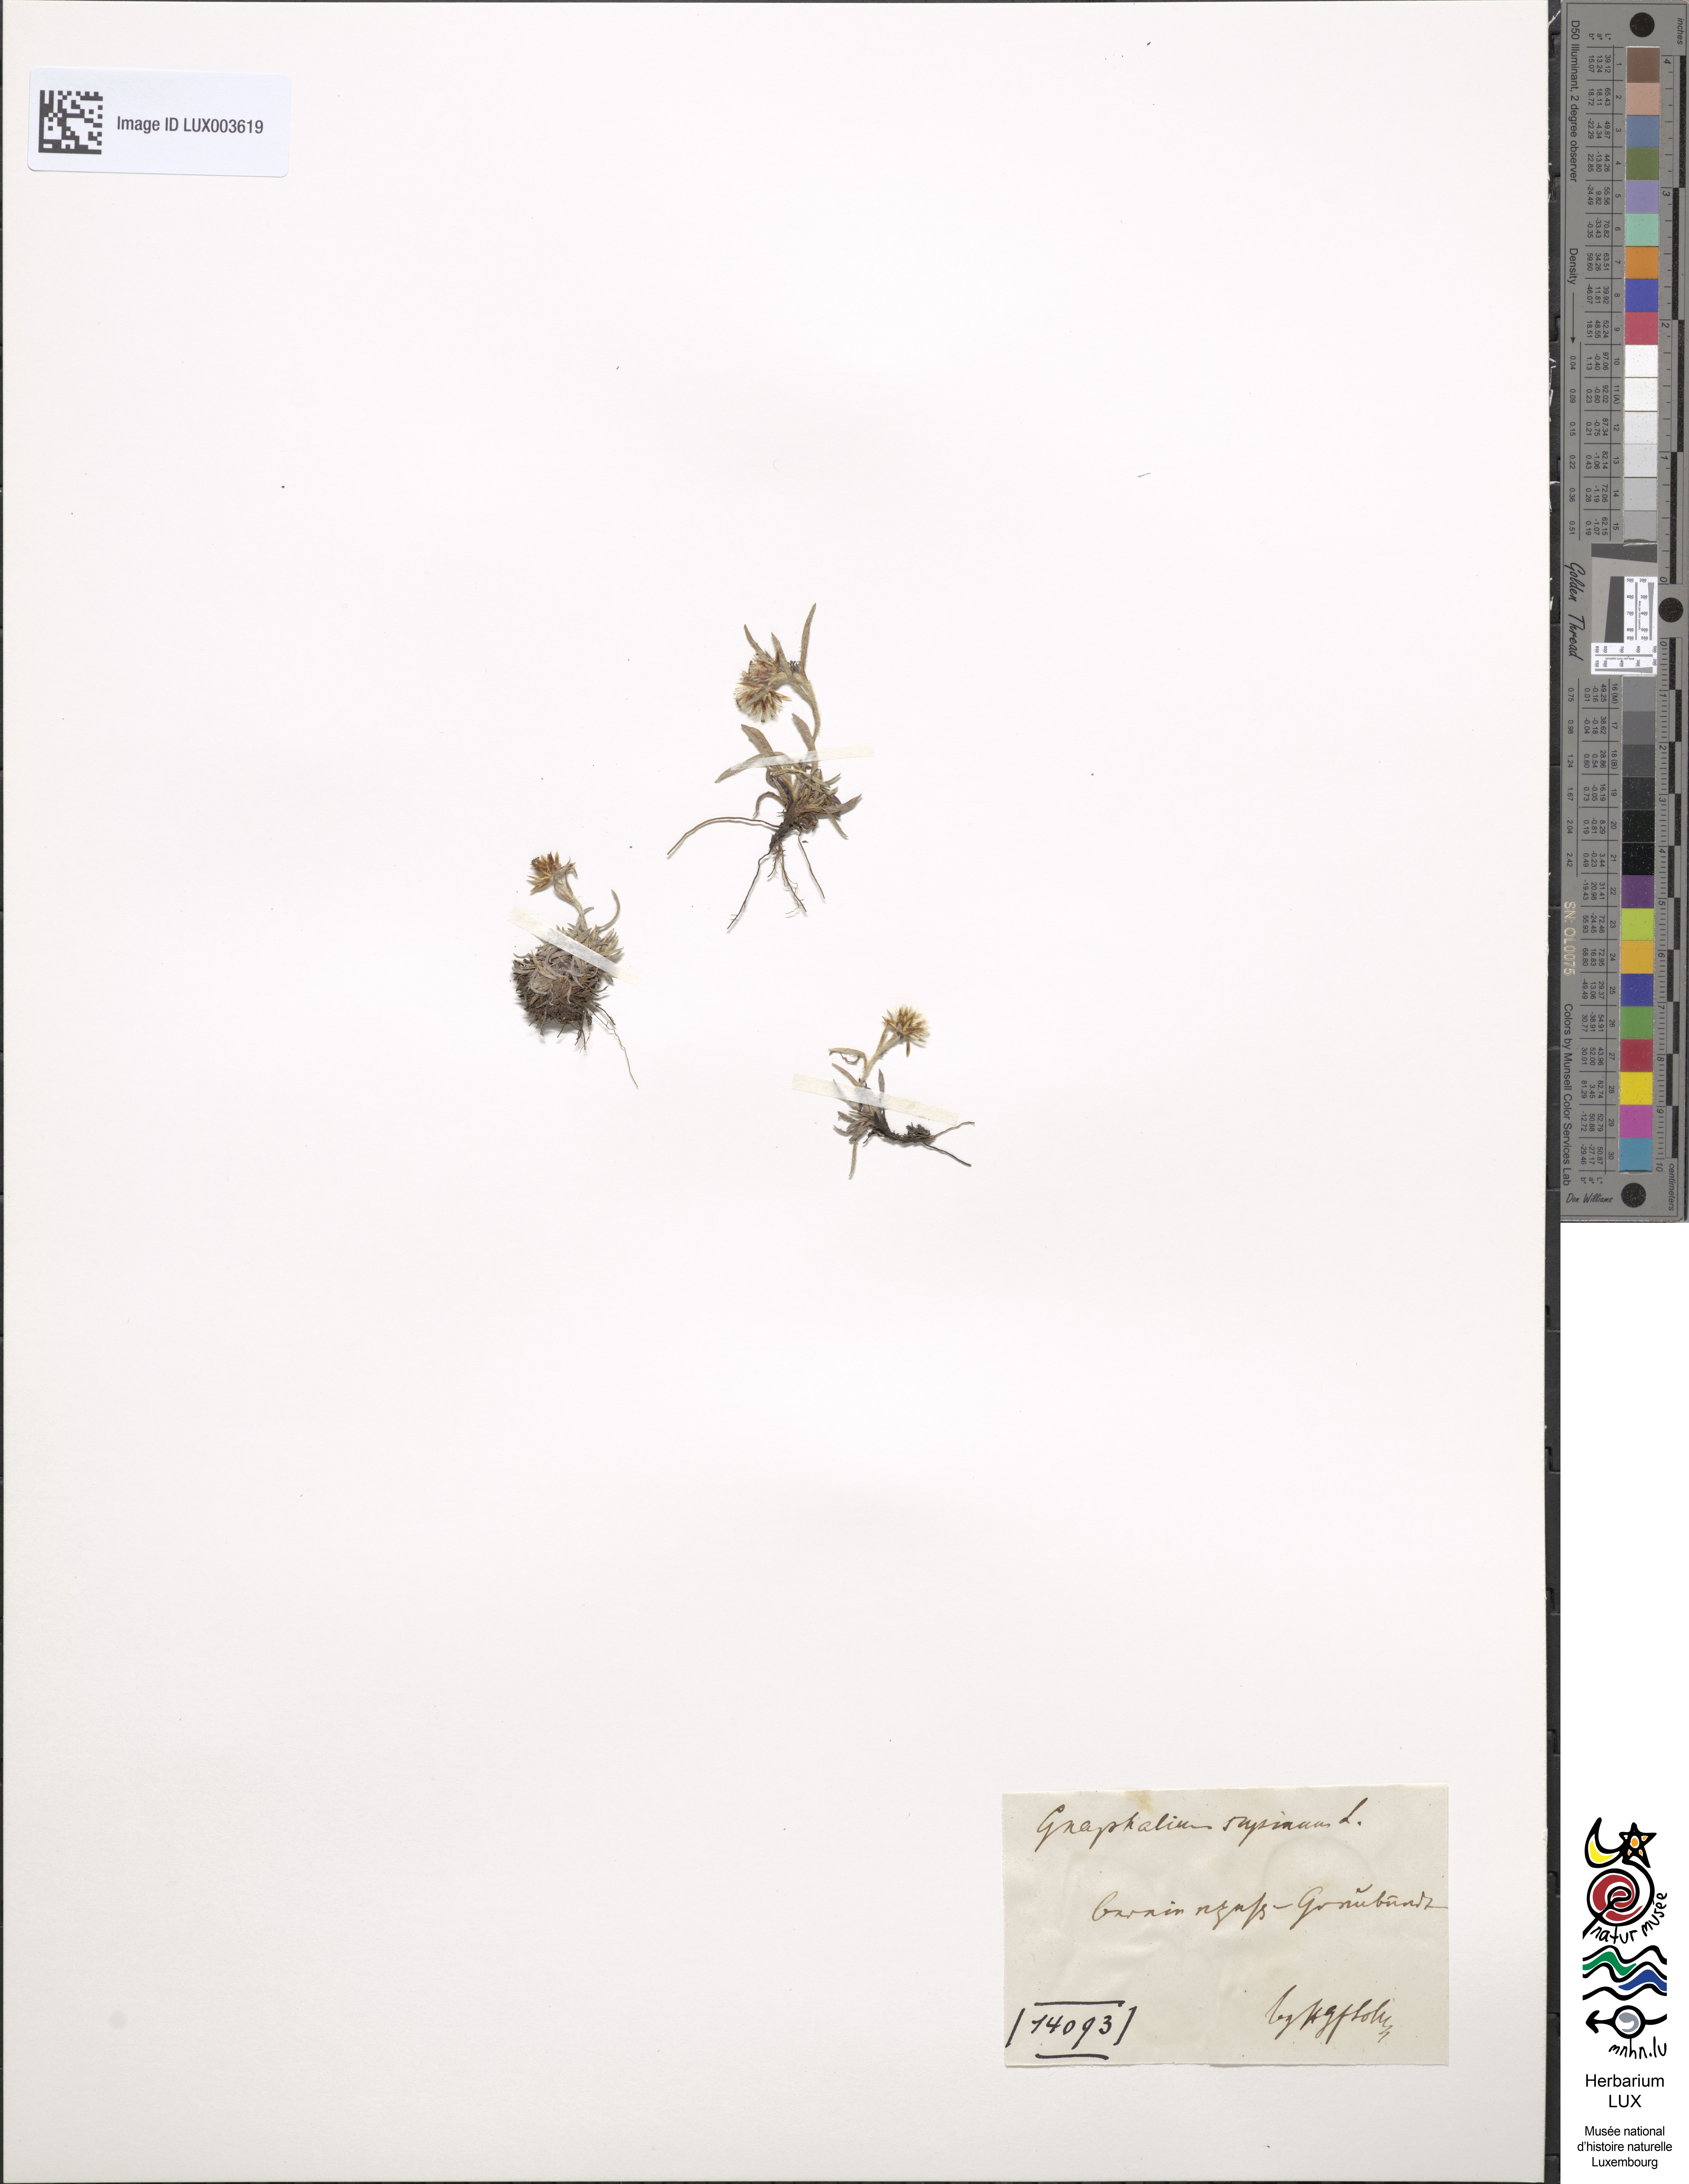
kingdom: Plantae
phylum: Tracheophyta
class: Magnoliopsida
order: Asterales
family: Asteraceae
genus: Omalotheca
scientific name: Omalotheca supina
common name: Alpine arctic-cudweed
